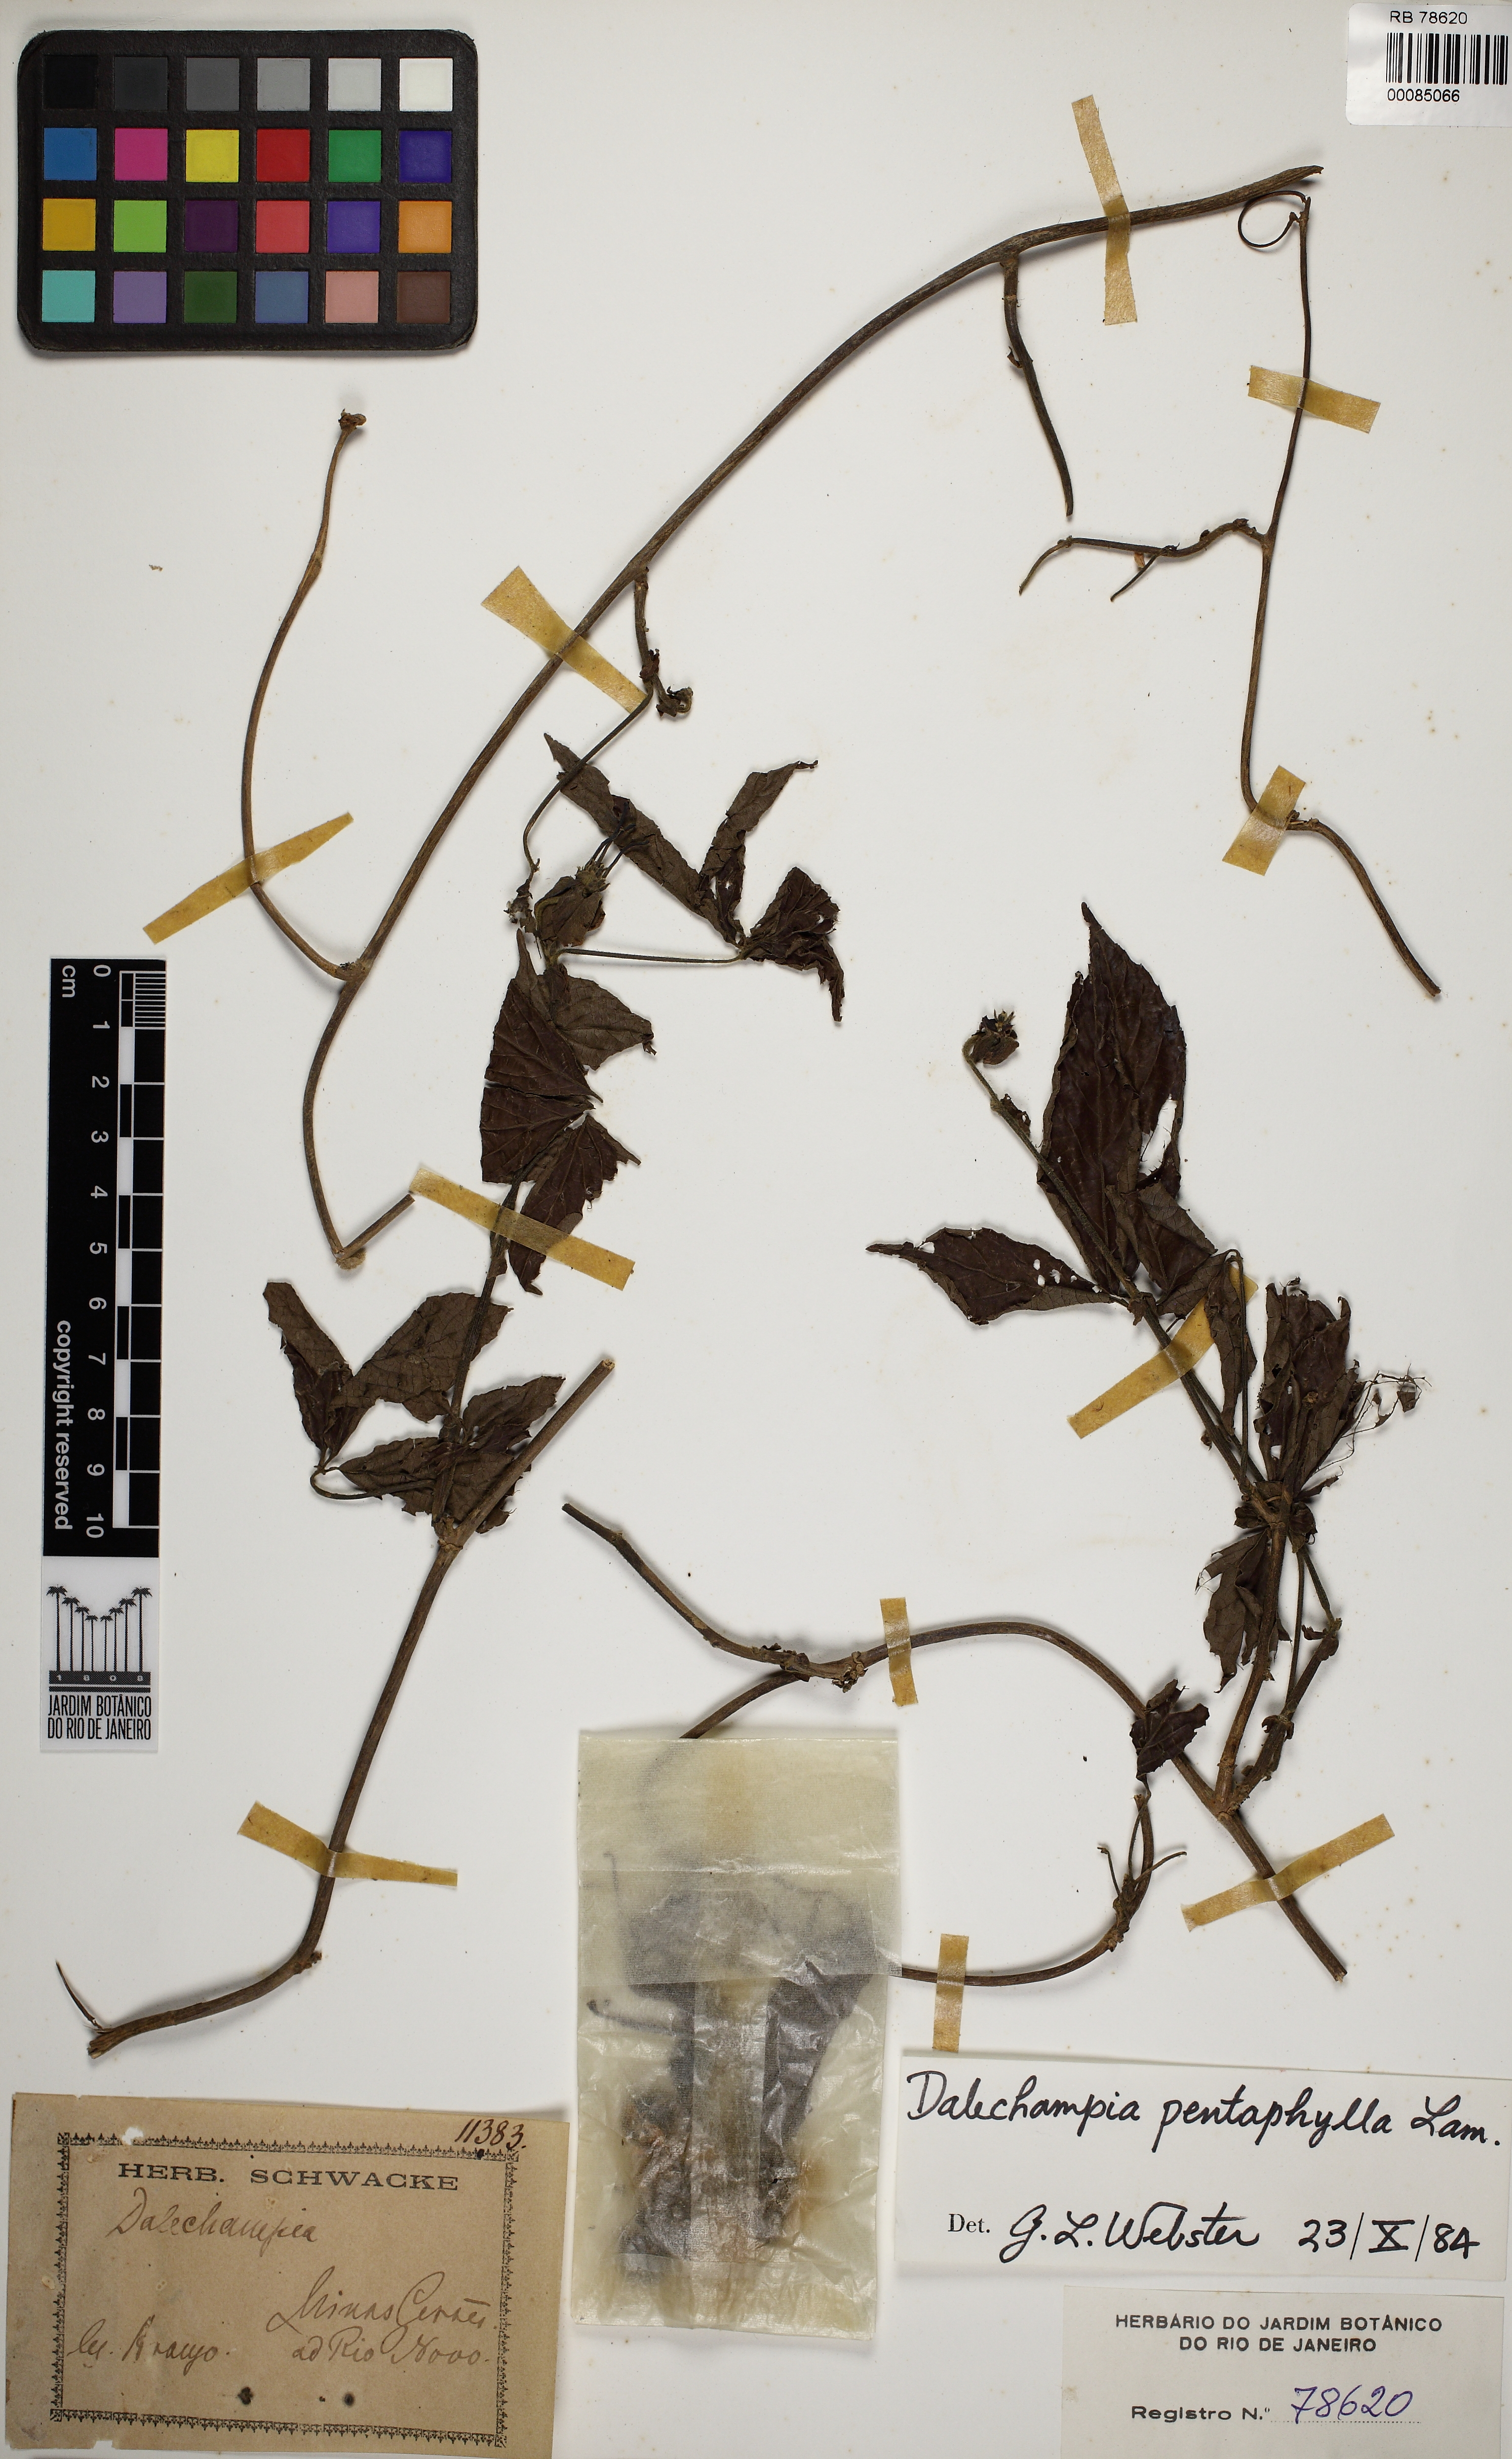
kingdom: Plantae
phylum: Tracheophyta
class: Magnoliopsida
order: Malpighiales
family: Euphorbiaceae
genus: Dalechampia
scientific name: Dalechampia pentaphylla
